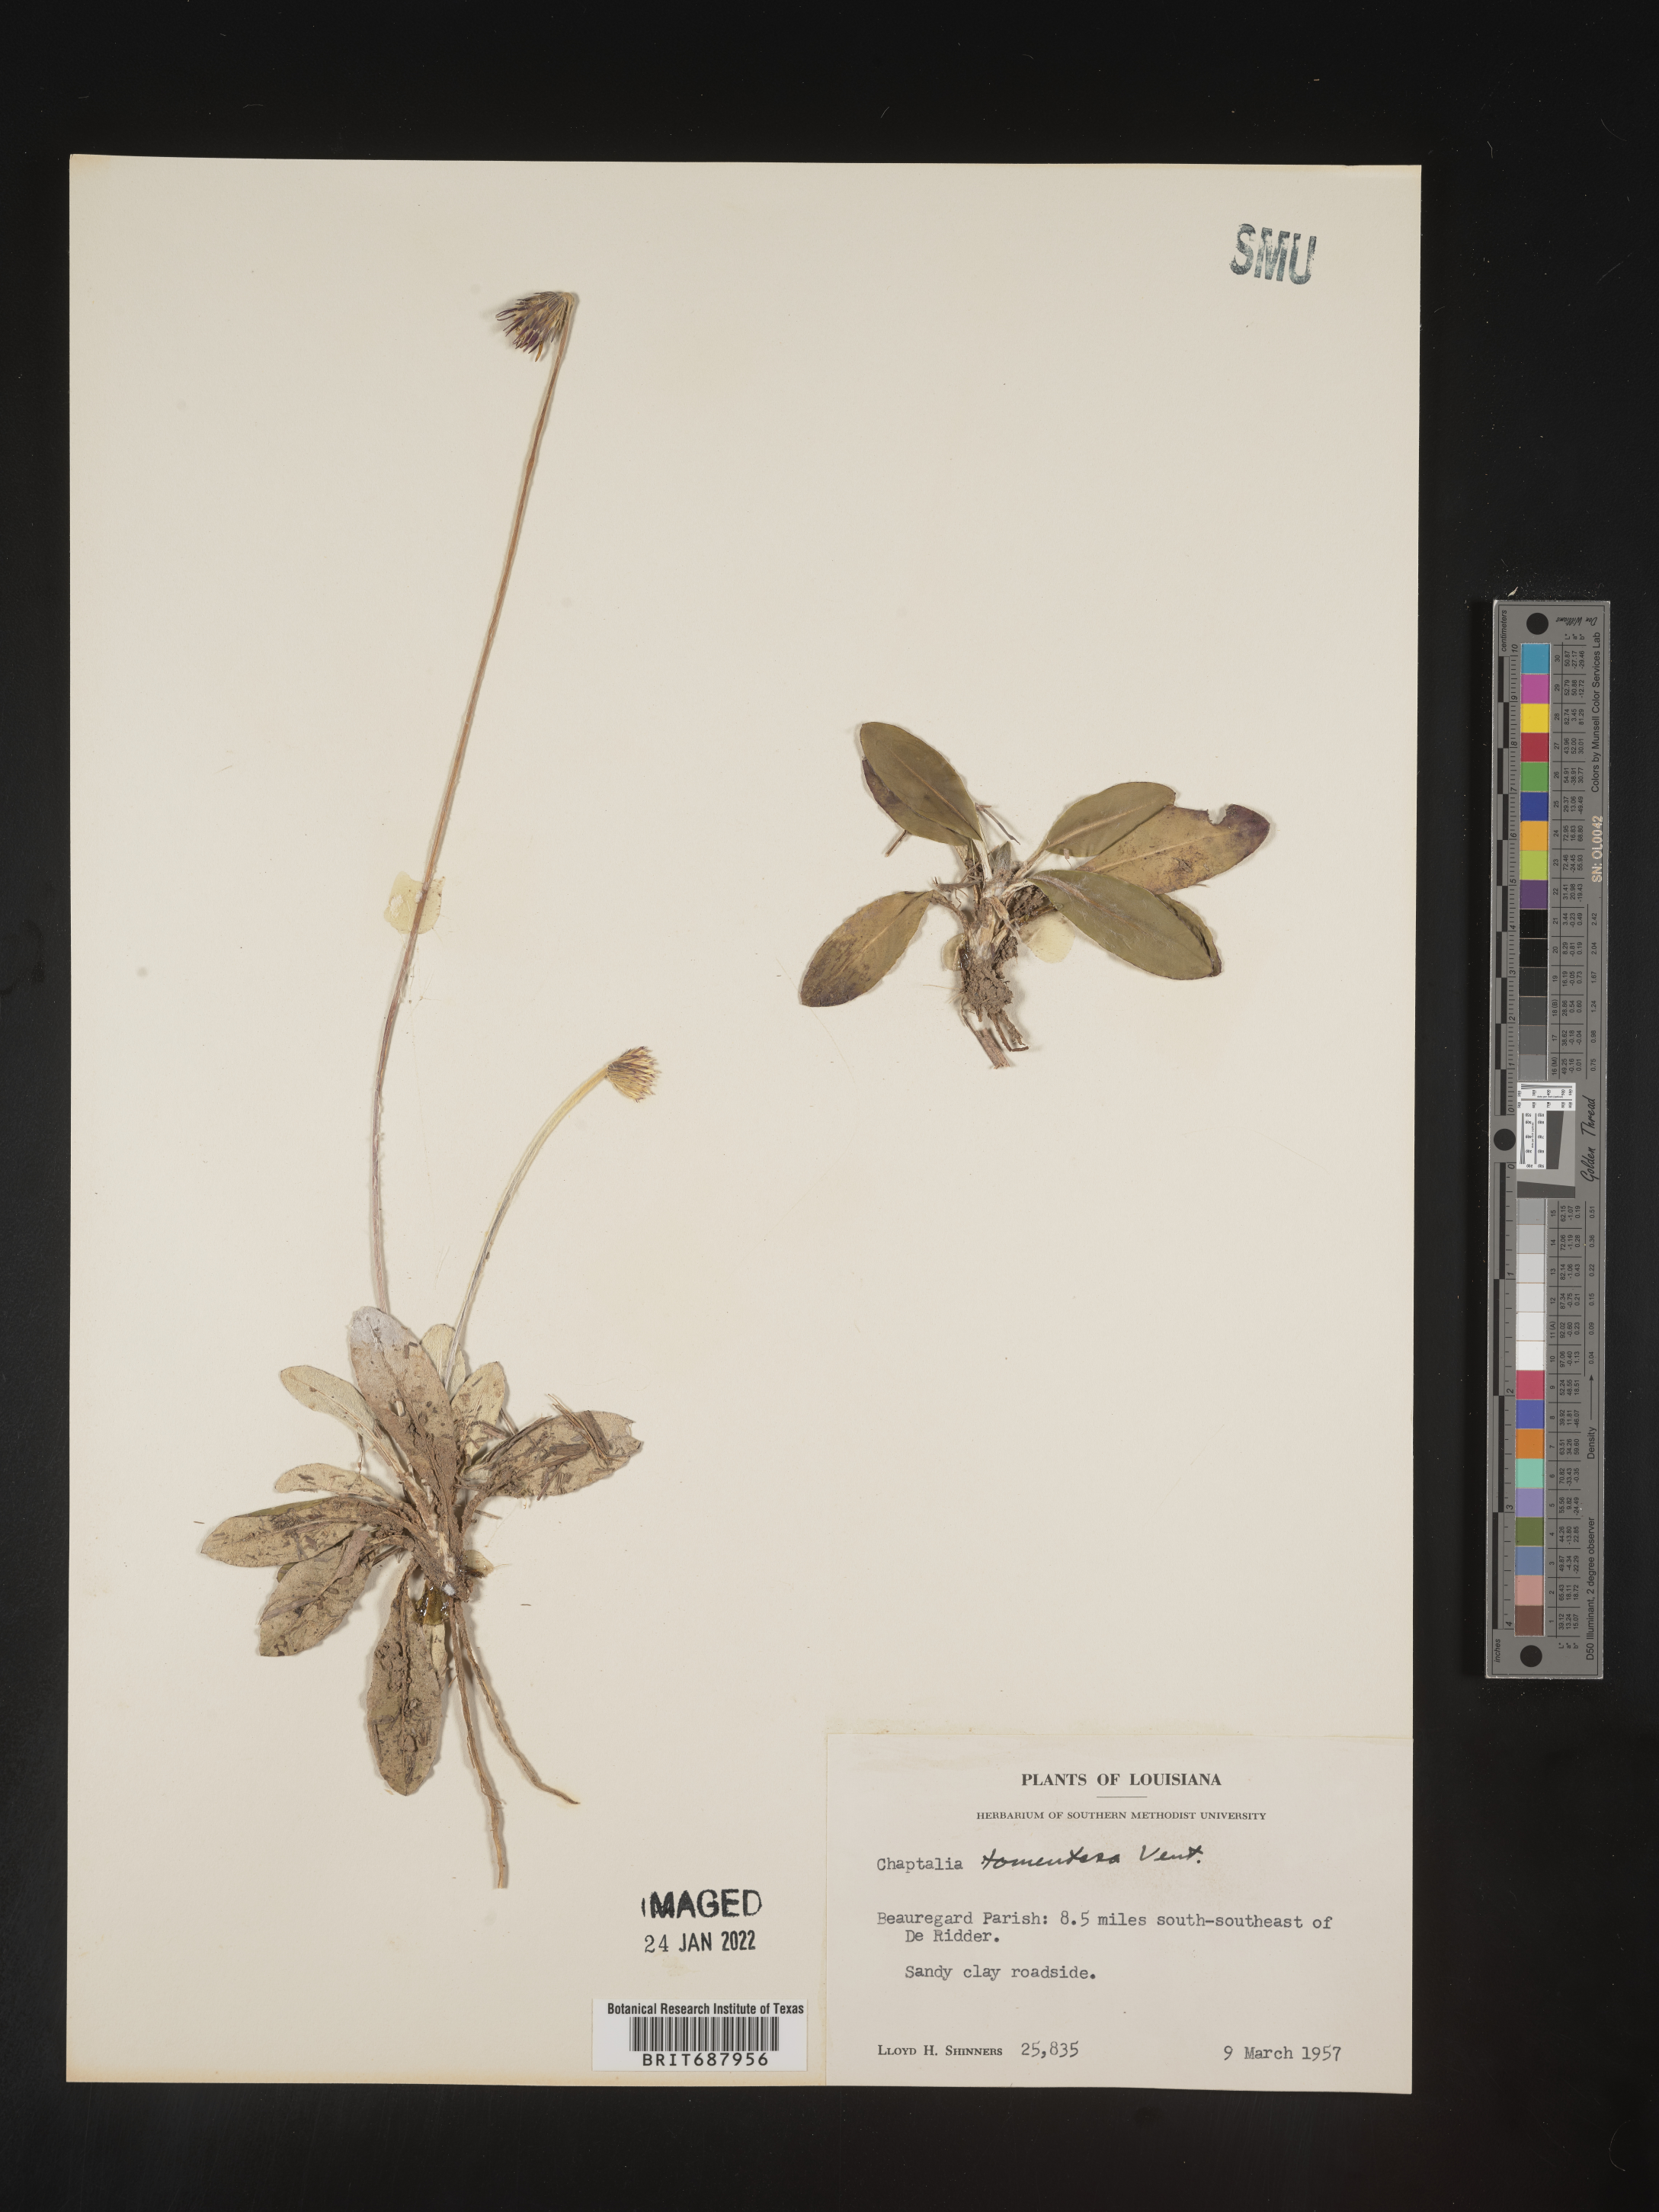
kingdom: Plantae
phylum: Tracheophyta
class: Magnoliopsida
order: Asterales
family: Asteraceae
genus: Chaptalia
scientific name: Chaptalia tomentosa
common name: Woolly sunbonnet
